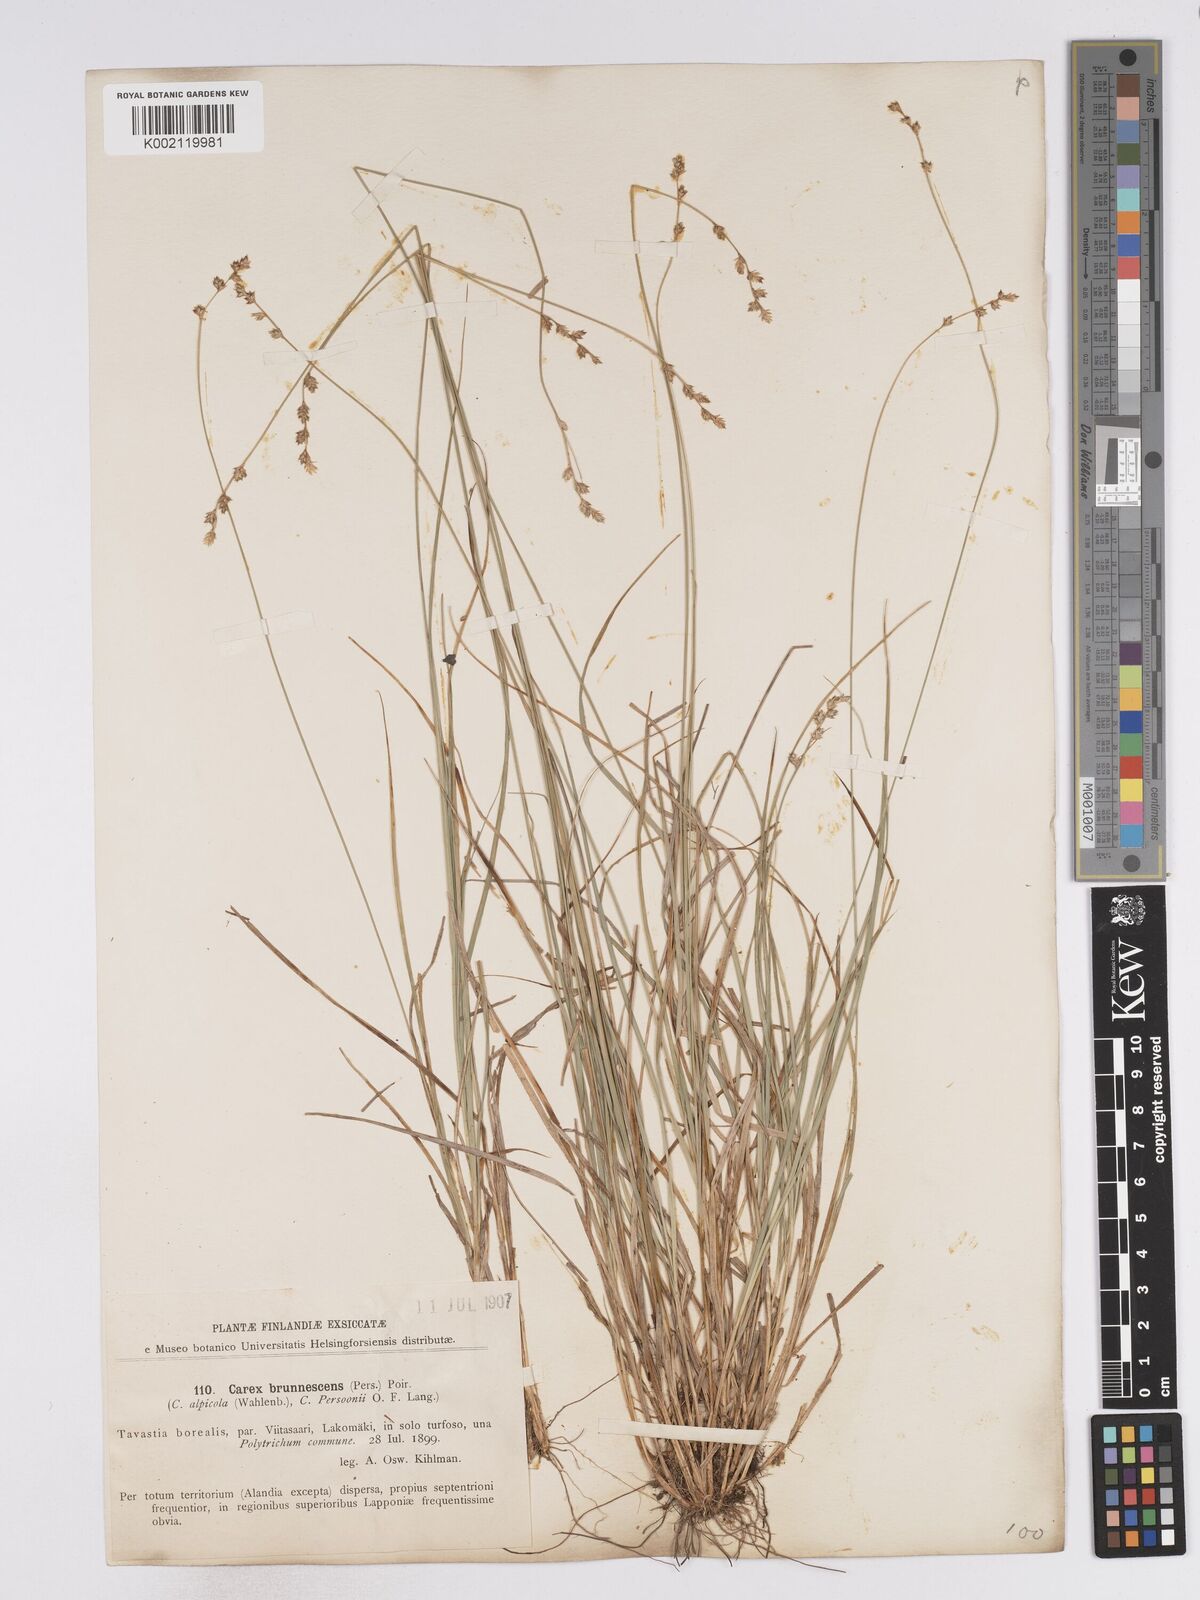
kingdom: Plantae
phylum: Tracheophyta
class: Liliopsida
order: Poales
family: Cyperaceae
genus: Carex
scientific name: Carex brunnescens
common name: Brown sedge
